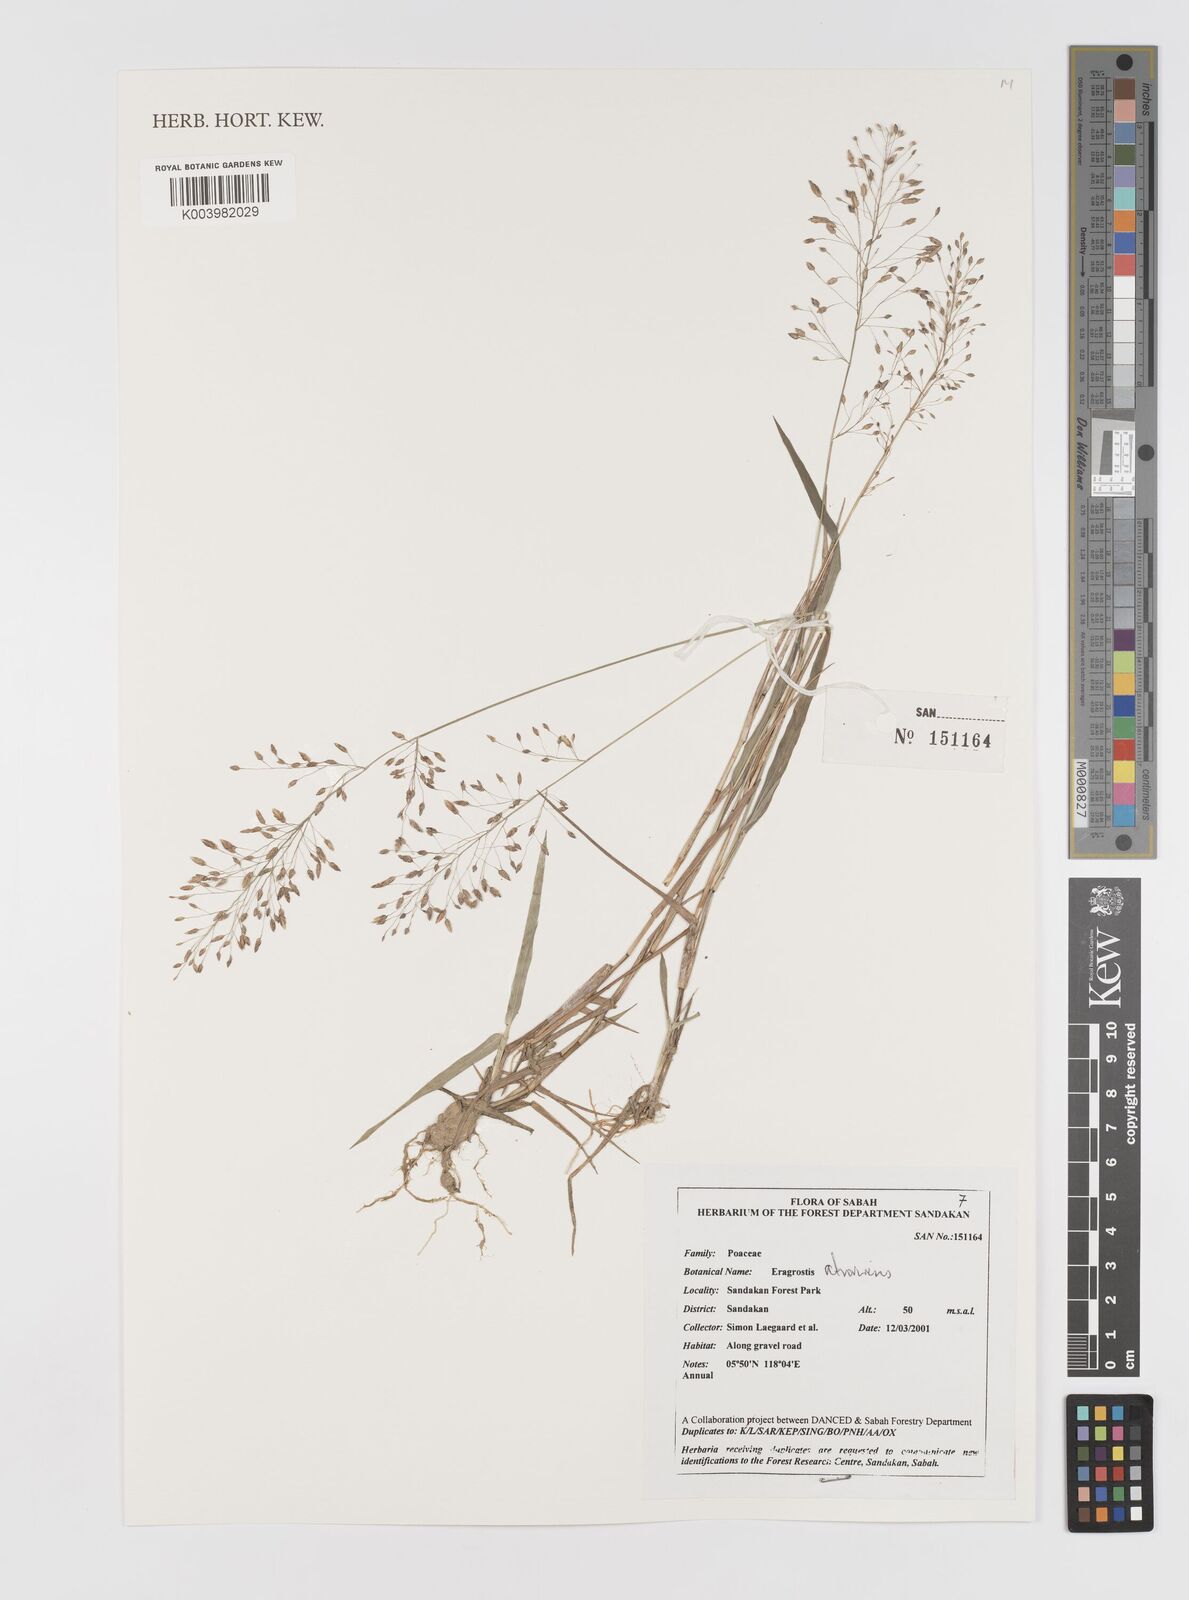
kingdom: Plantae
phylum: Tracheophyta
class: Liliopsida
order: Poales
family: Poaceae
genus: Eragrostis
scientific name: Eragrostis atrovirens
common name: Thalia lovegrass
